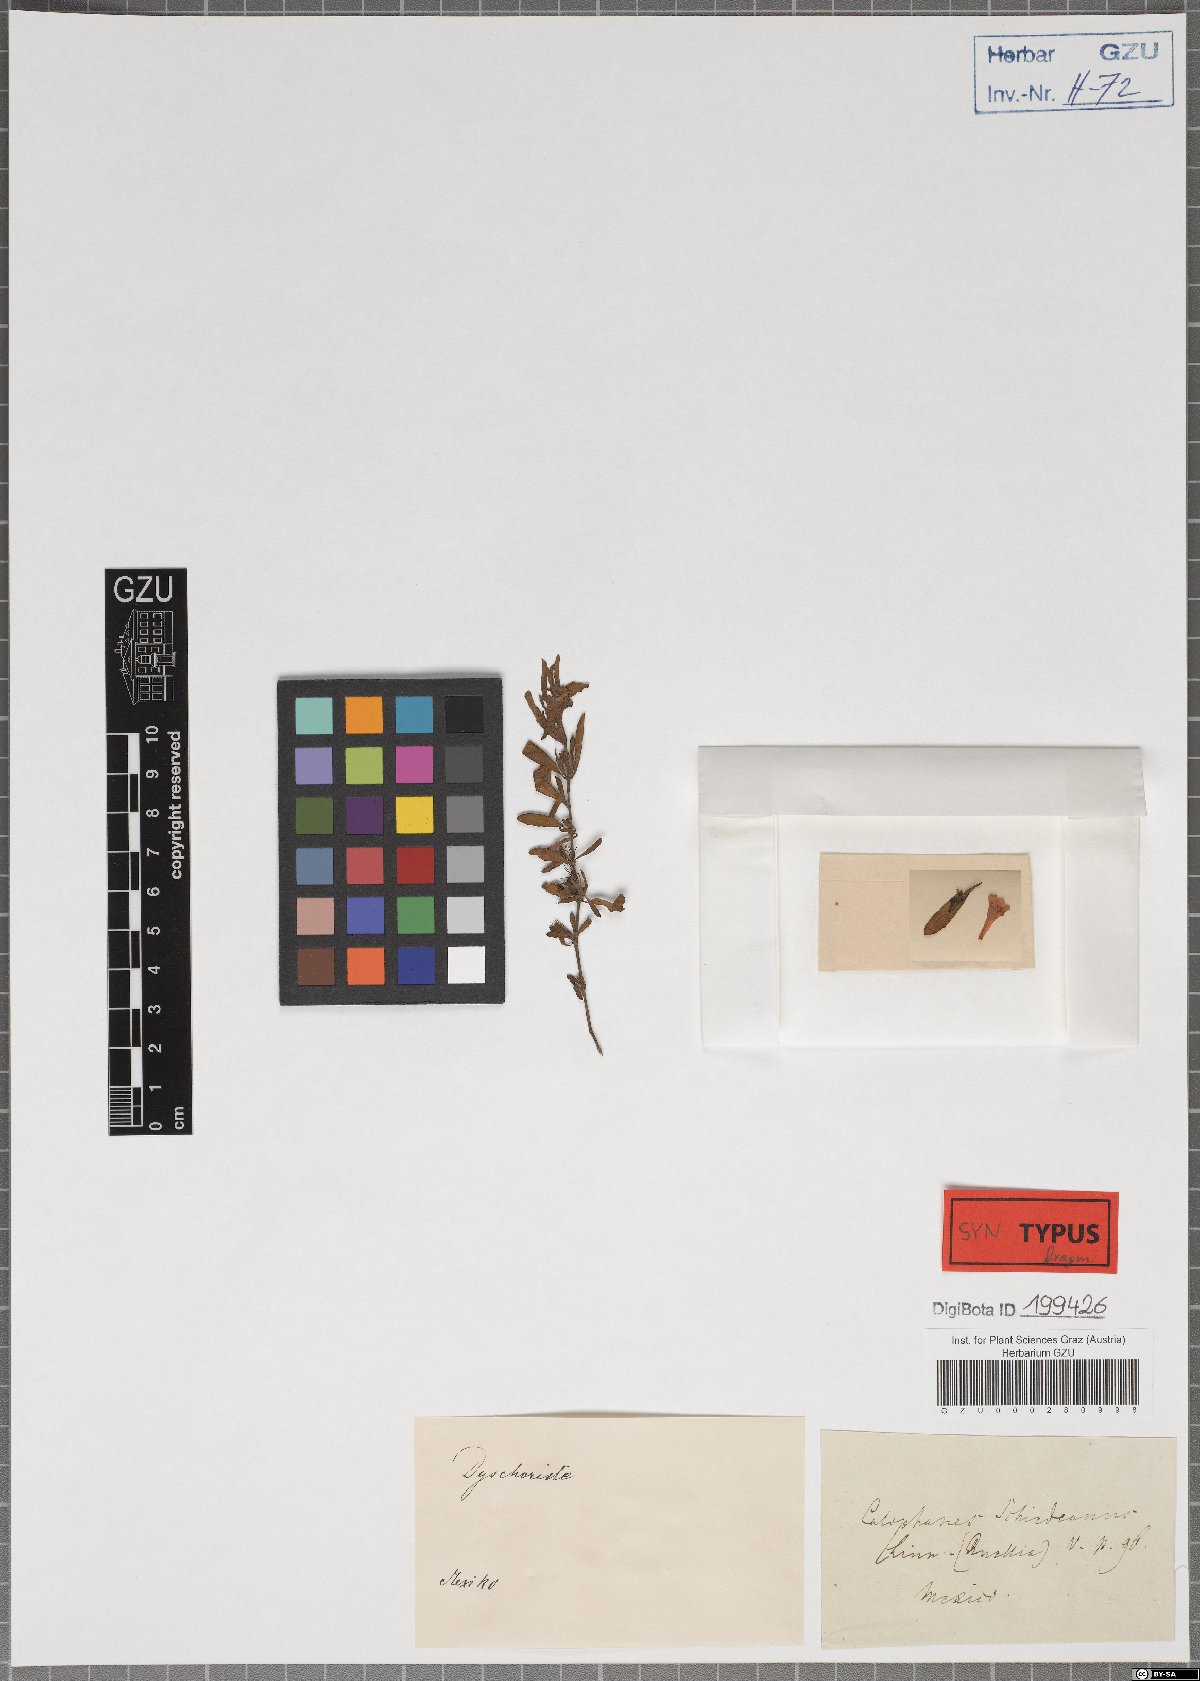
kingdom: Plantae
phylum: Tracheophyta
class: Magnoliopsida
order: Lamiales
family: Acanthaceae
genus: Dyschoriste
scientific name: Dyschoriste schiedeana
